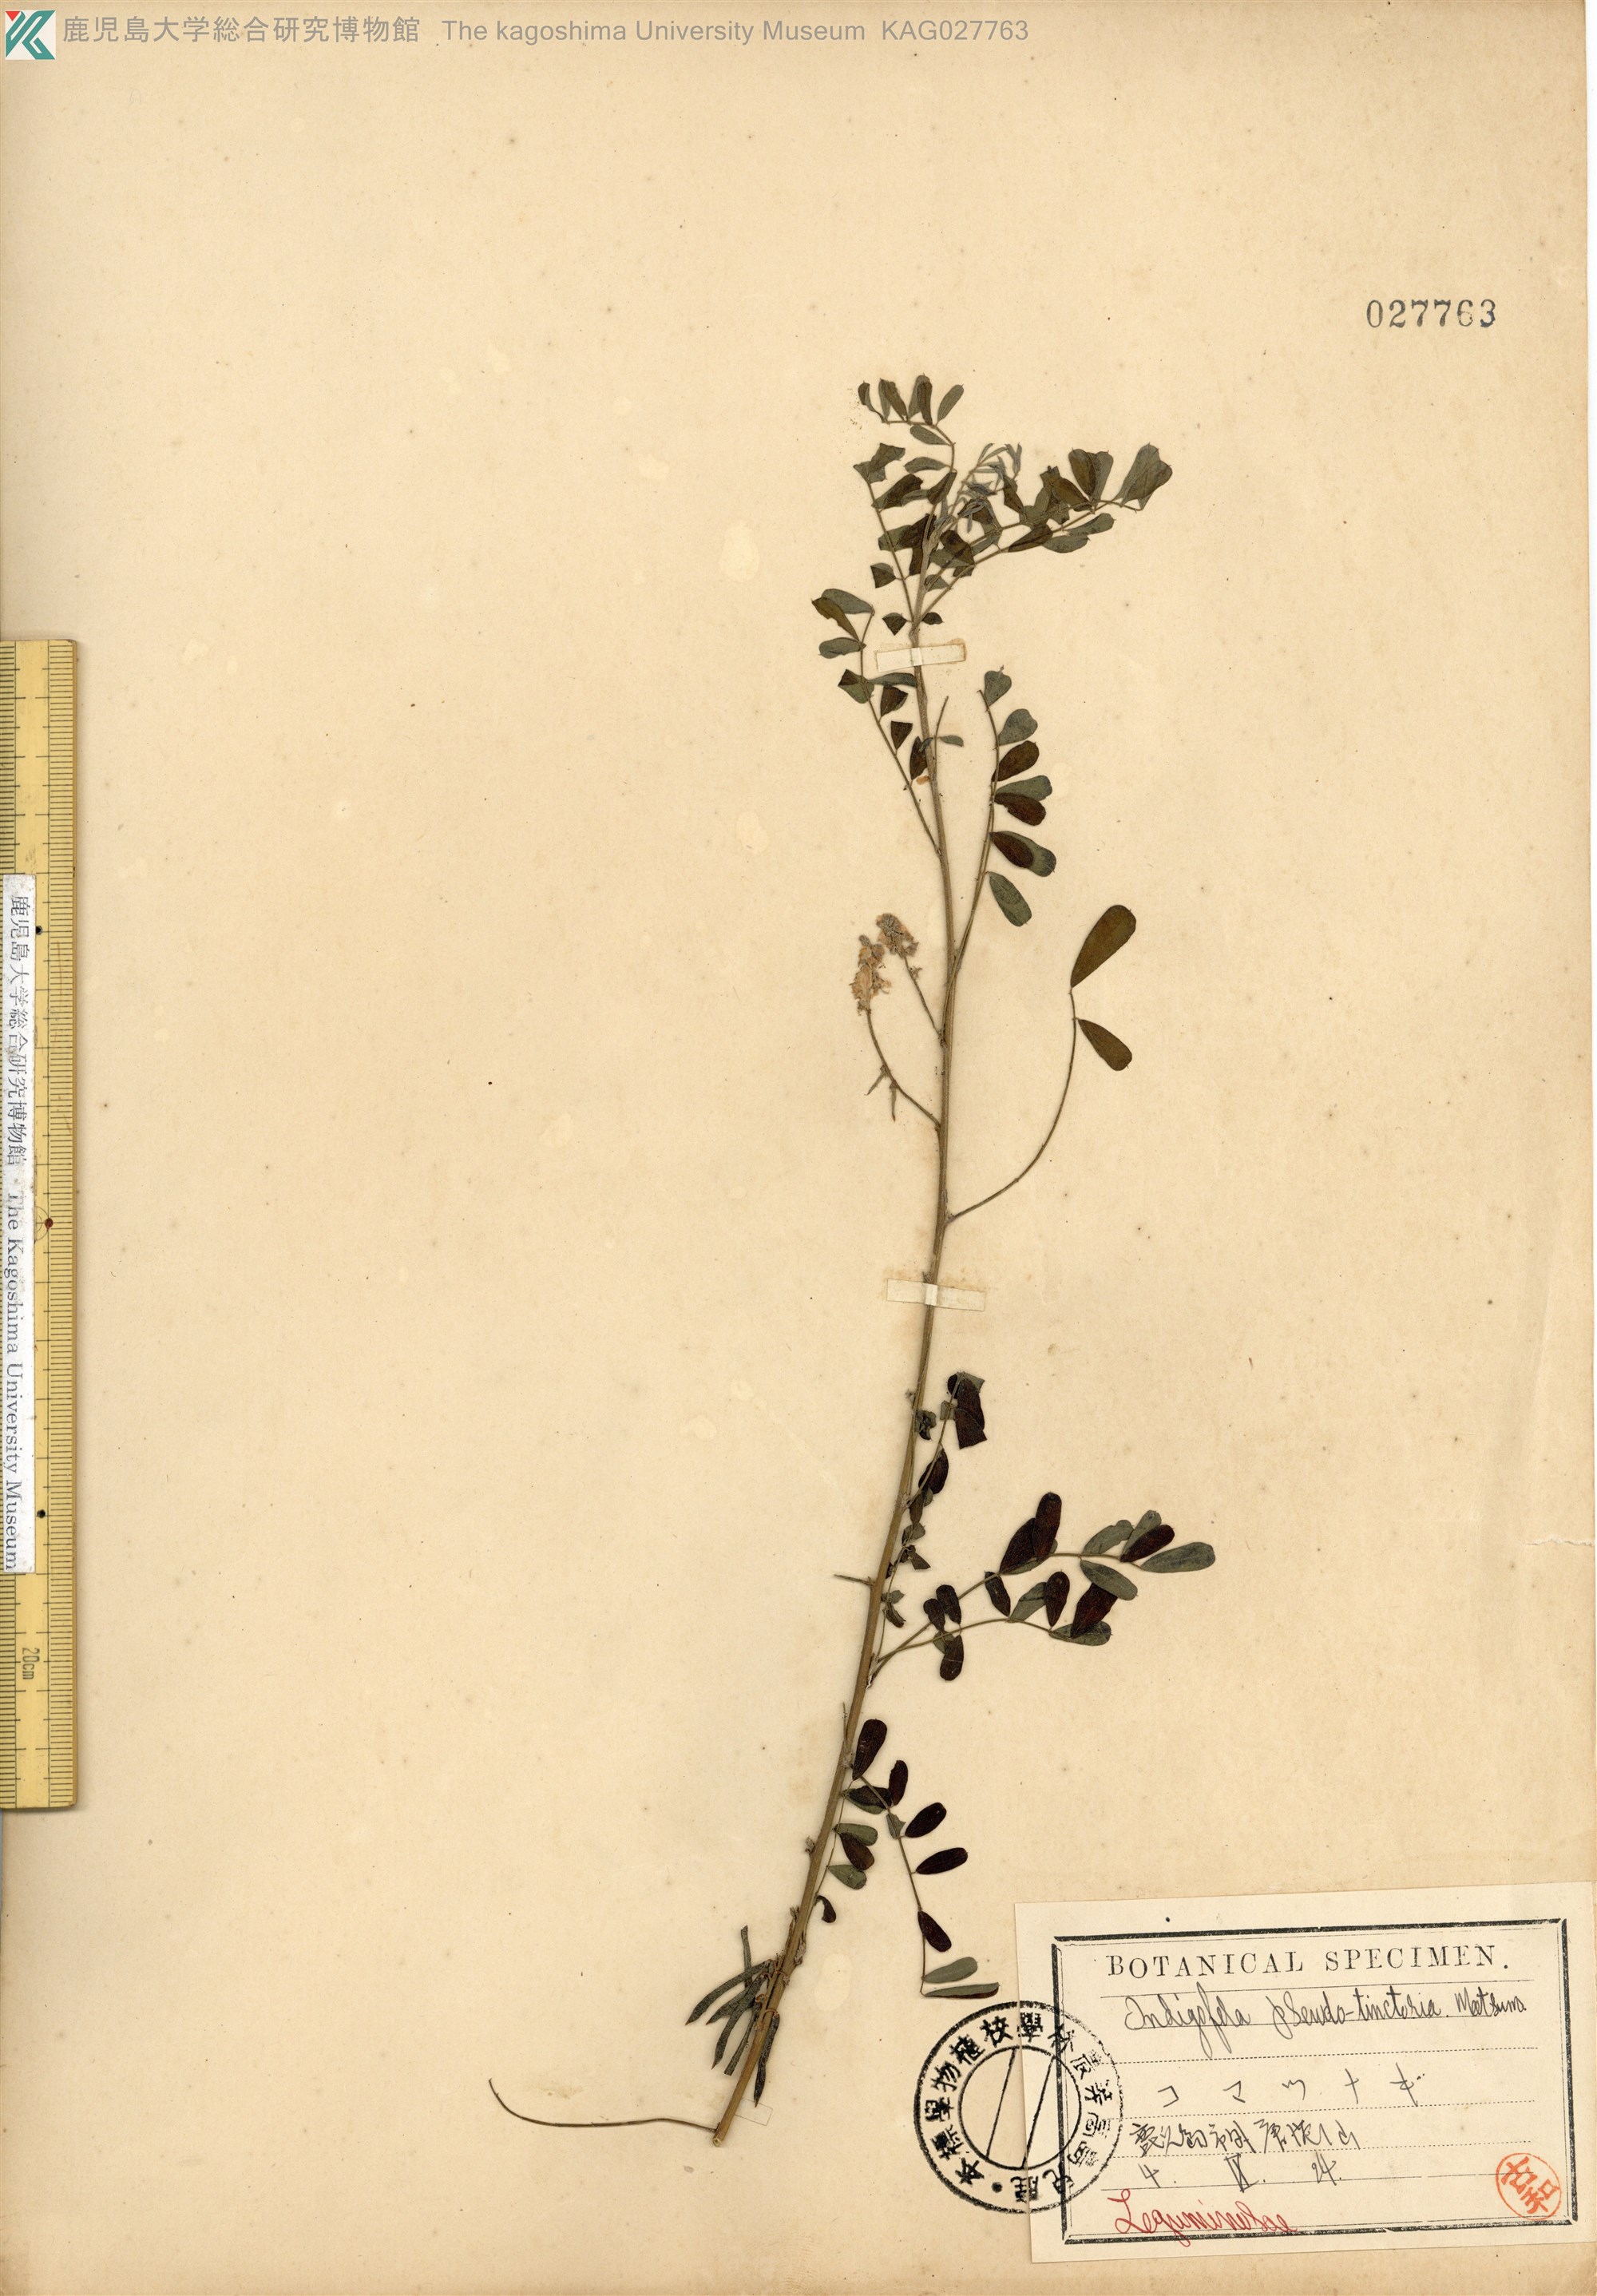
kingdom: Plantae
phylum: Tracheophyta
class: Magnoliopsida
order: Fabales
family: Fabaceae
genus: Indigofera
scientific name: Indigofera bungeana
